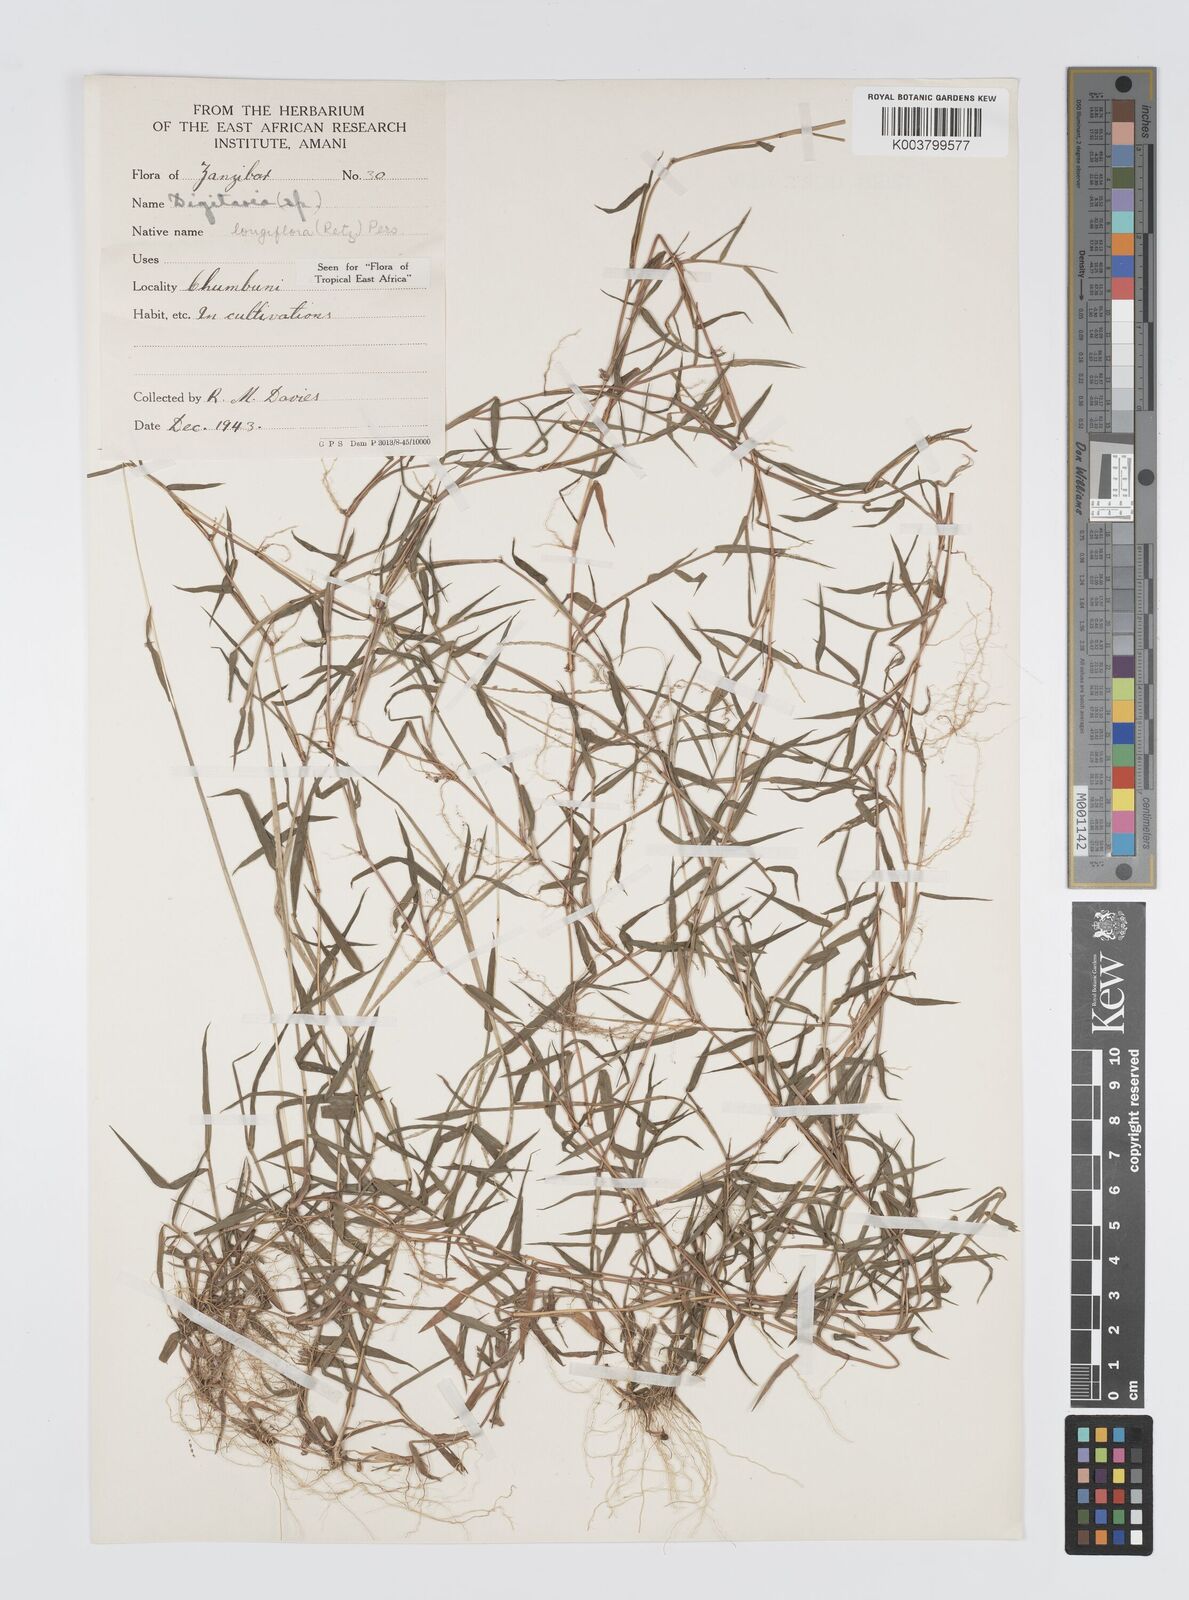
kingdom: Plantae
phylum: Tracheophyta
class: Liliopsida
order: Poales
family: Poaceae
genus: Digitaria
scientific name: Digitaria longiflora
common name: Wire crabgrass
